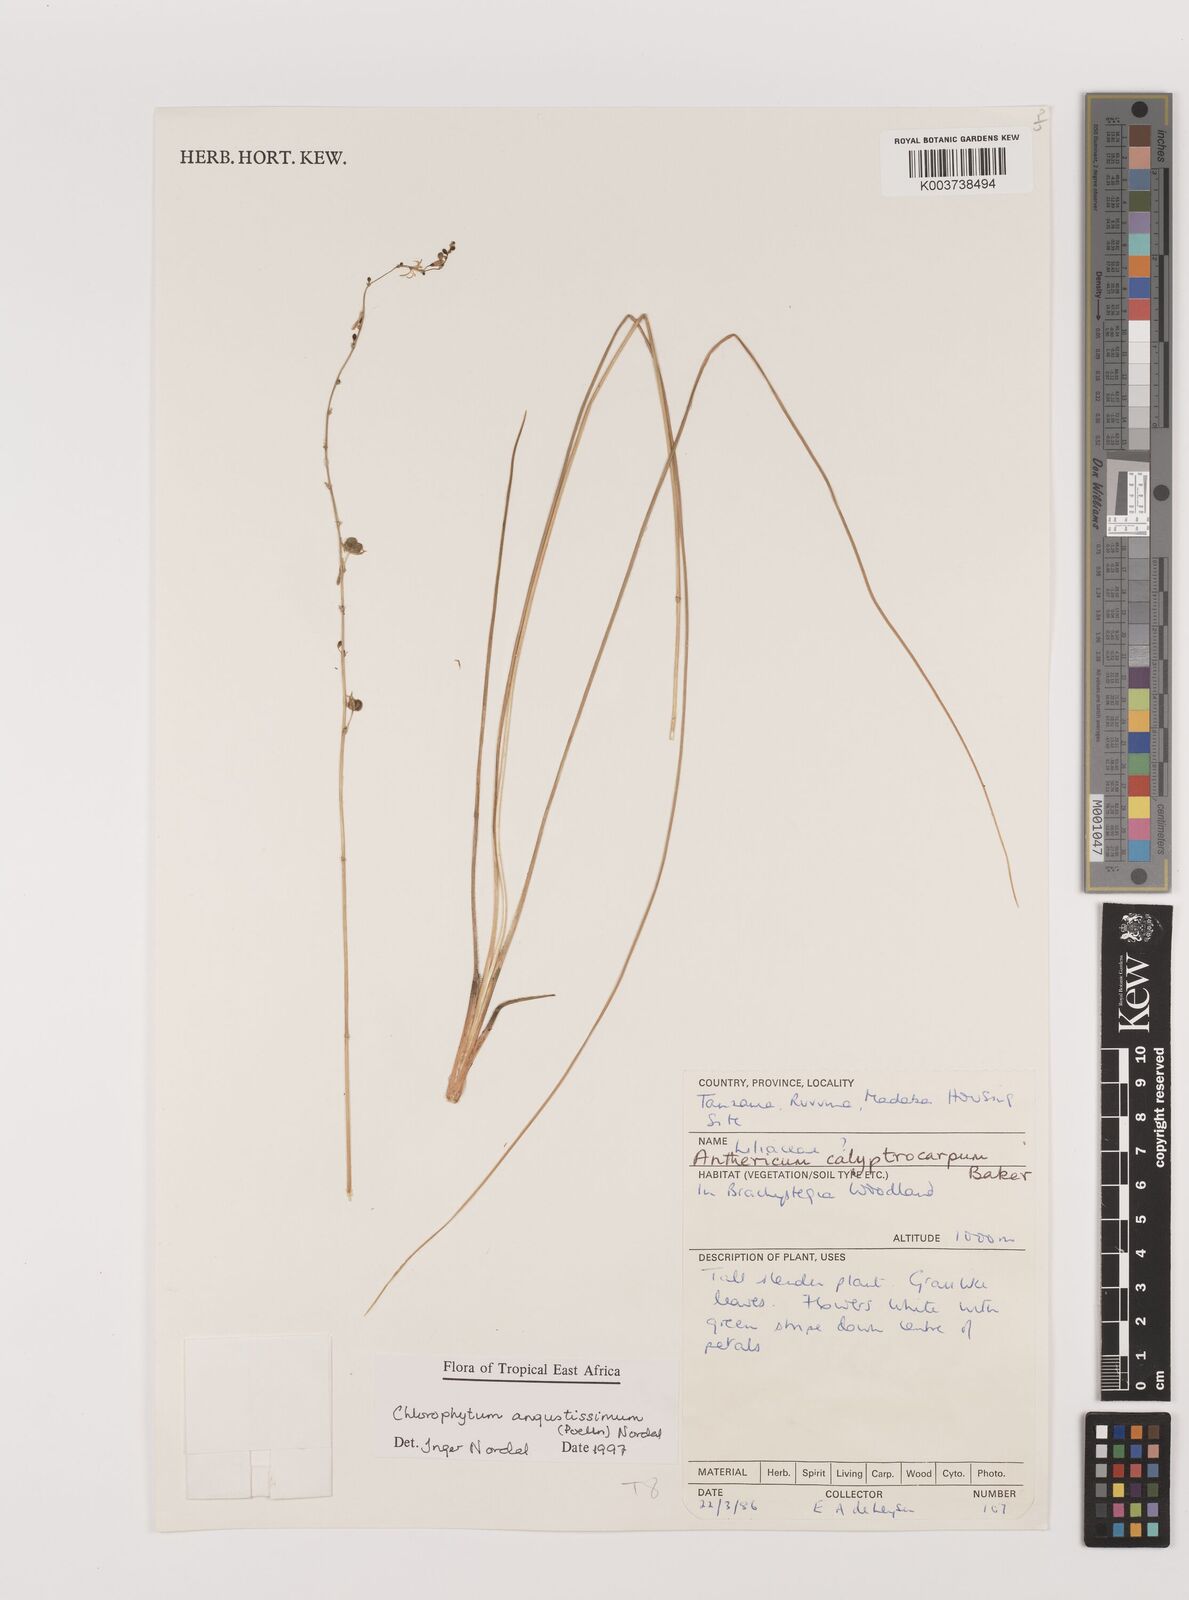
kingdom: Plantae
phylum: Tracheophyta
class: Liliopsida
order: Asparagales
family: Asparagaceae
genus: Chlorophytum
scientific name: Chlorophytum angustissimum
